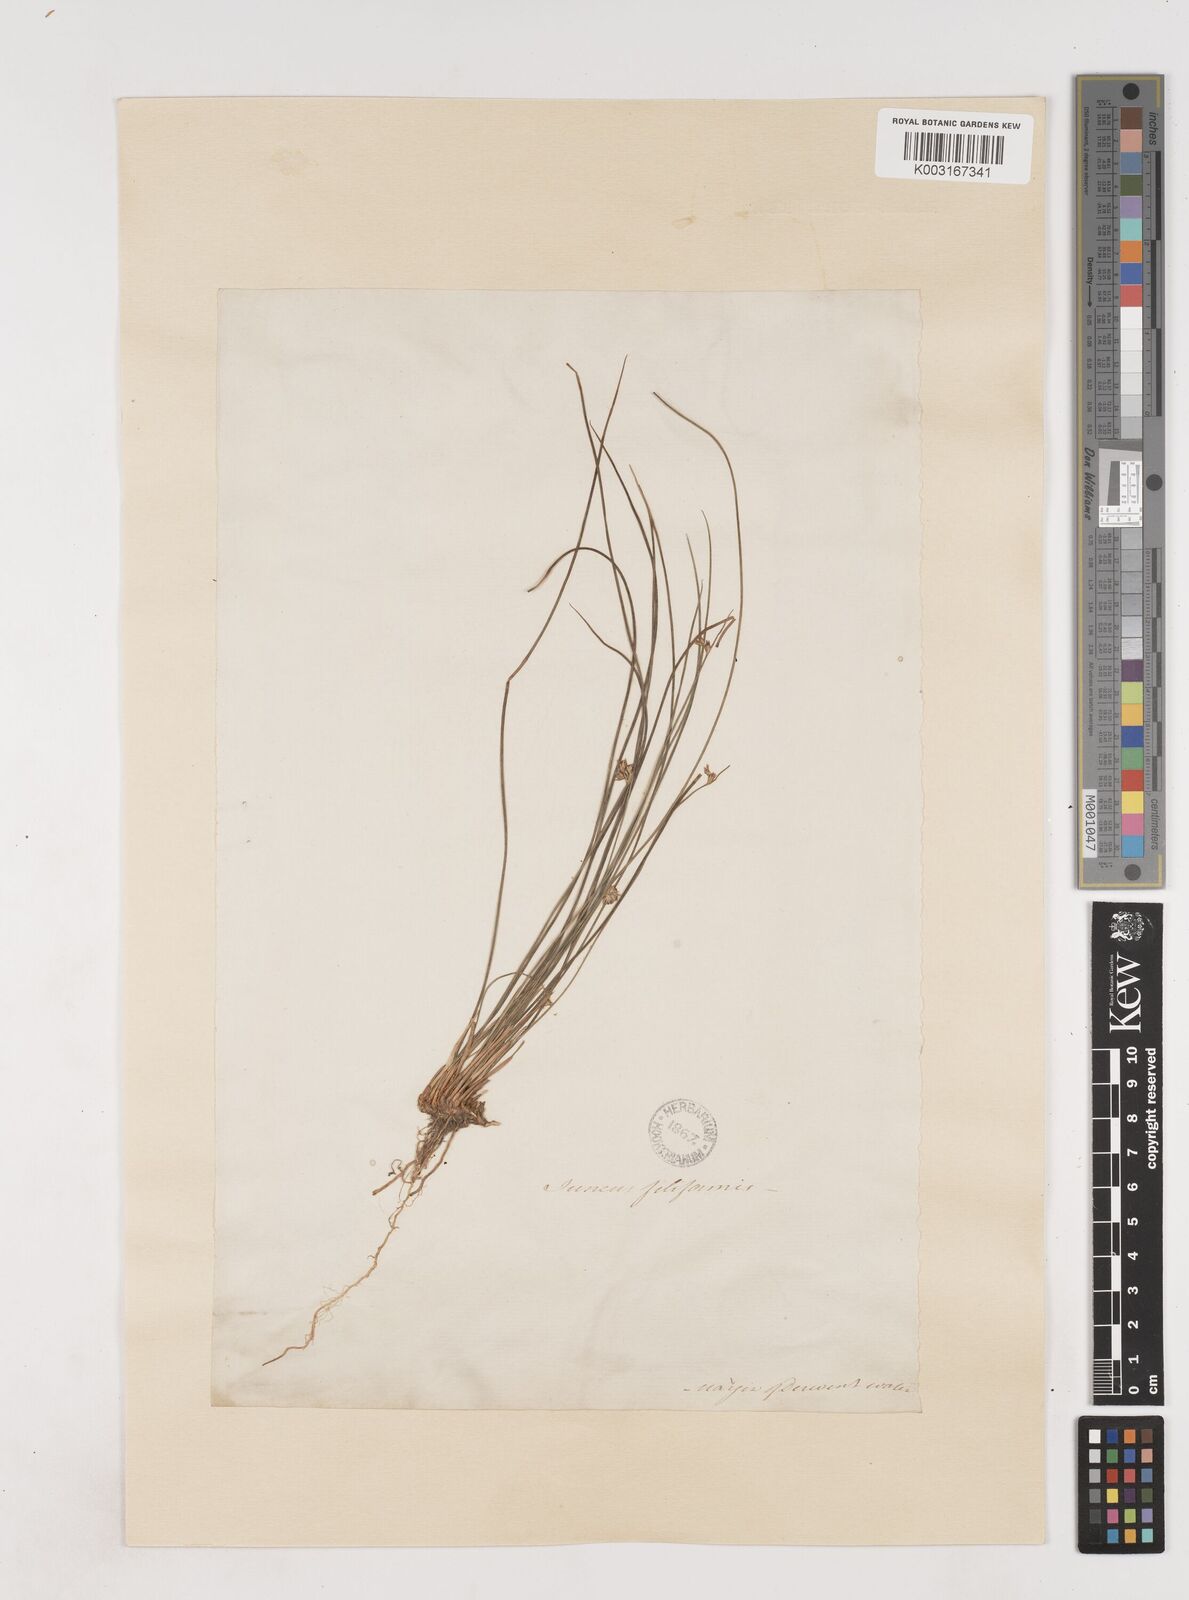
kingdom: Plantae
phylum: Tracheophyta
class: Liliopsida
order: Poales
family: Juncaceae
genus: Juncus
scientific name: Juncus filiformis
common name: Thread rush
